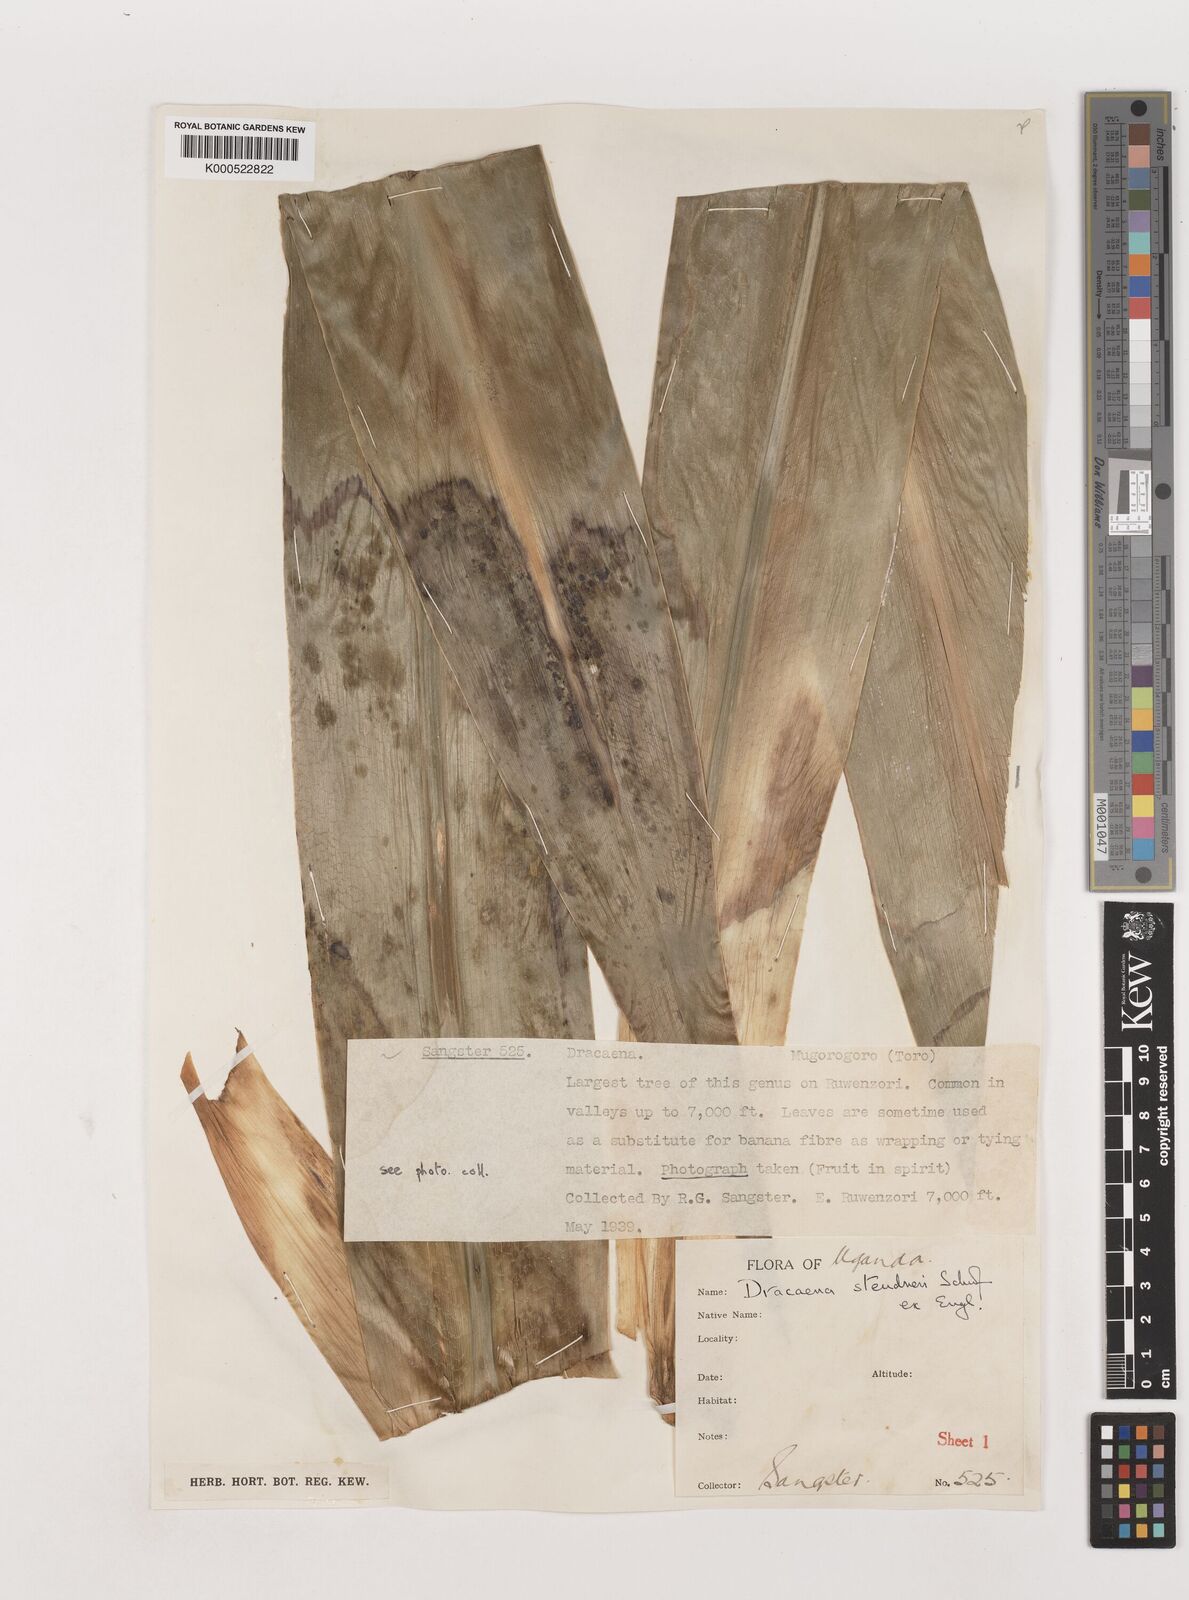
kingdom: Plantae
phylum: Tracheophyta
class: Liliopsida
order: Asparagales
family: Asparagaceae
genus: Dracaena
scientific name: Dracaena steudneri
